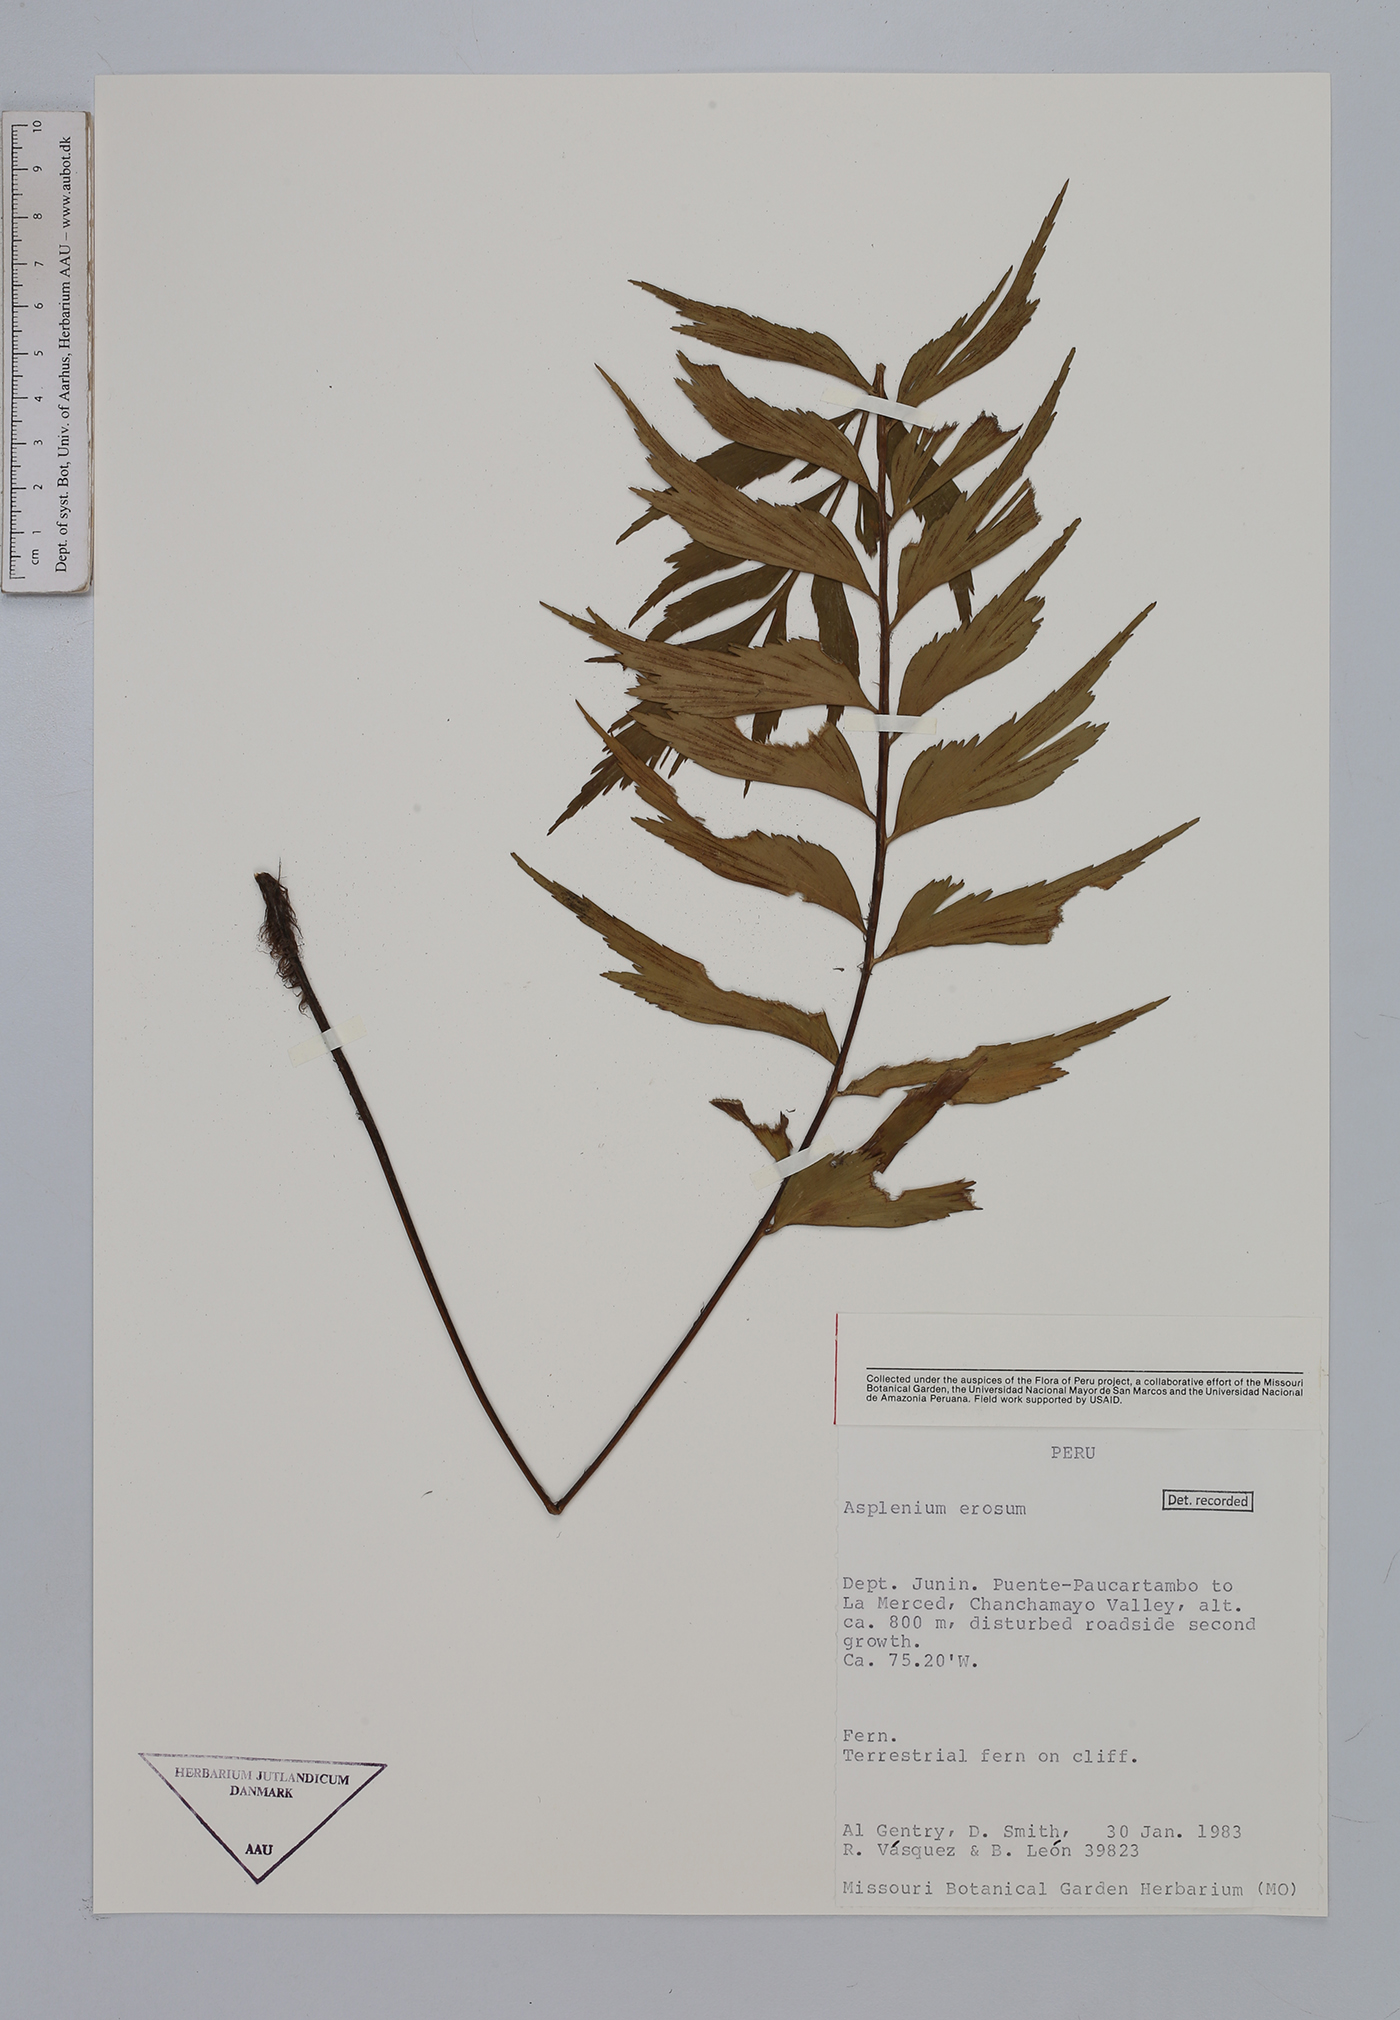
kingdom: Plantae
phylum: Tracheophyta
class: Polypodiopsida
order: Polypodiales
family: Aspleniaceae
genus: Asplenium
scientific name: Asplenium erosum
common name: Eared spleenwort
